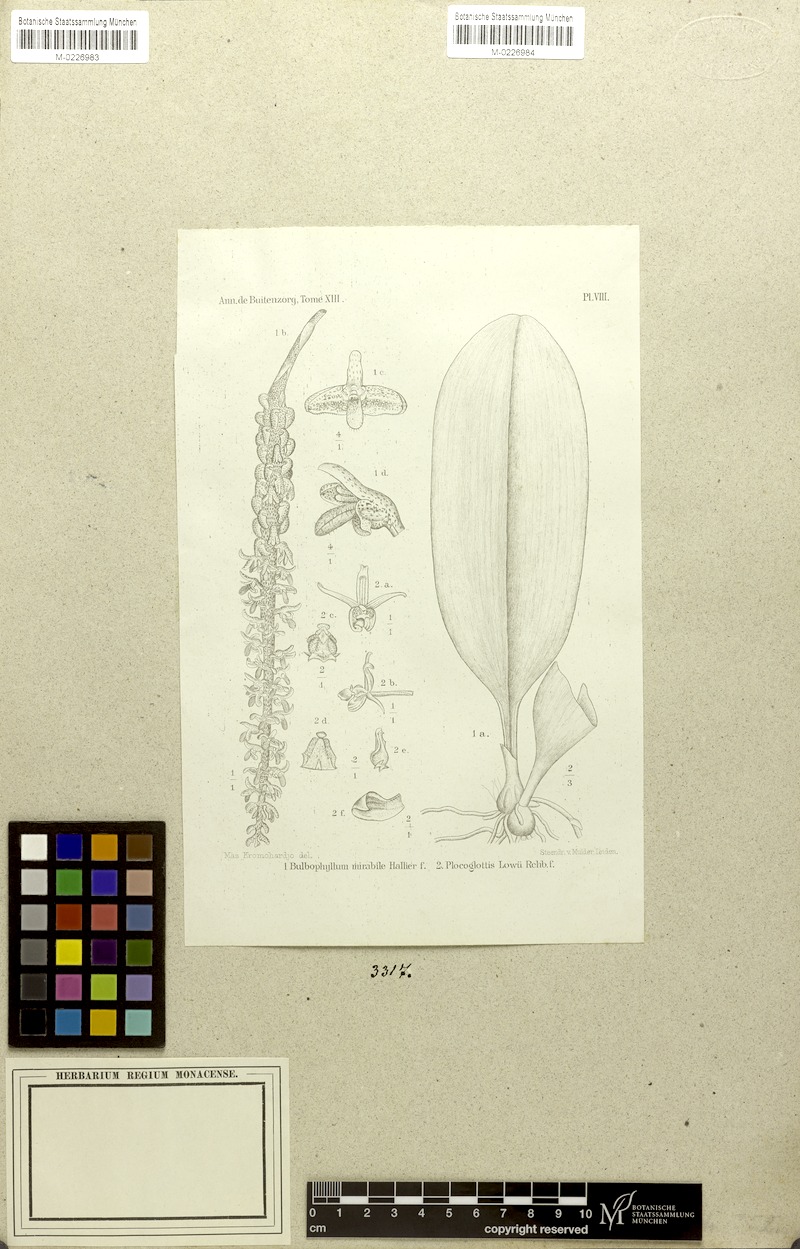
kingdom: Plantae
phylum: Tracheophyta
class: Liliopsida
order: Asparagales
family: Orchidaceae
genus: Plocoglottis
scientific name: Plocoglottis lowii
